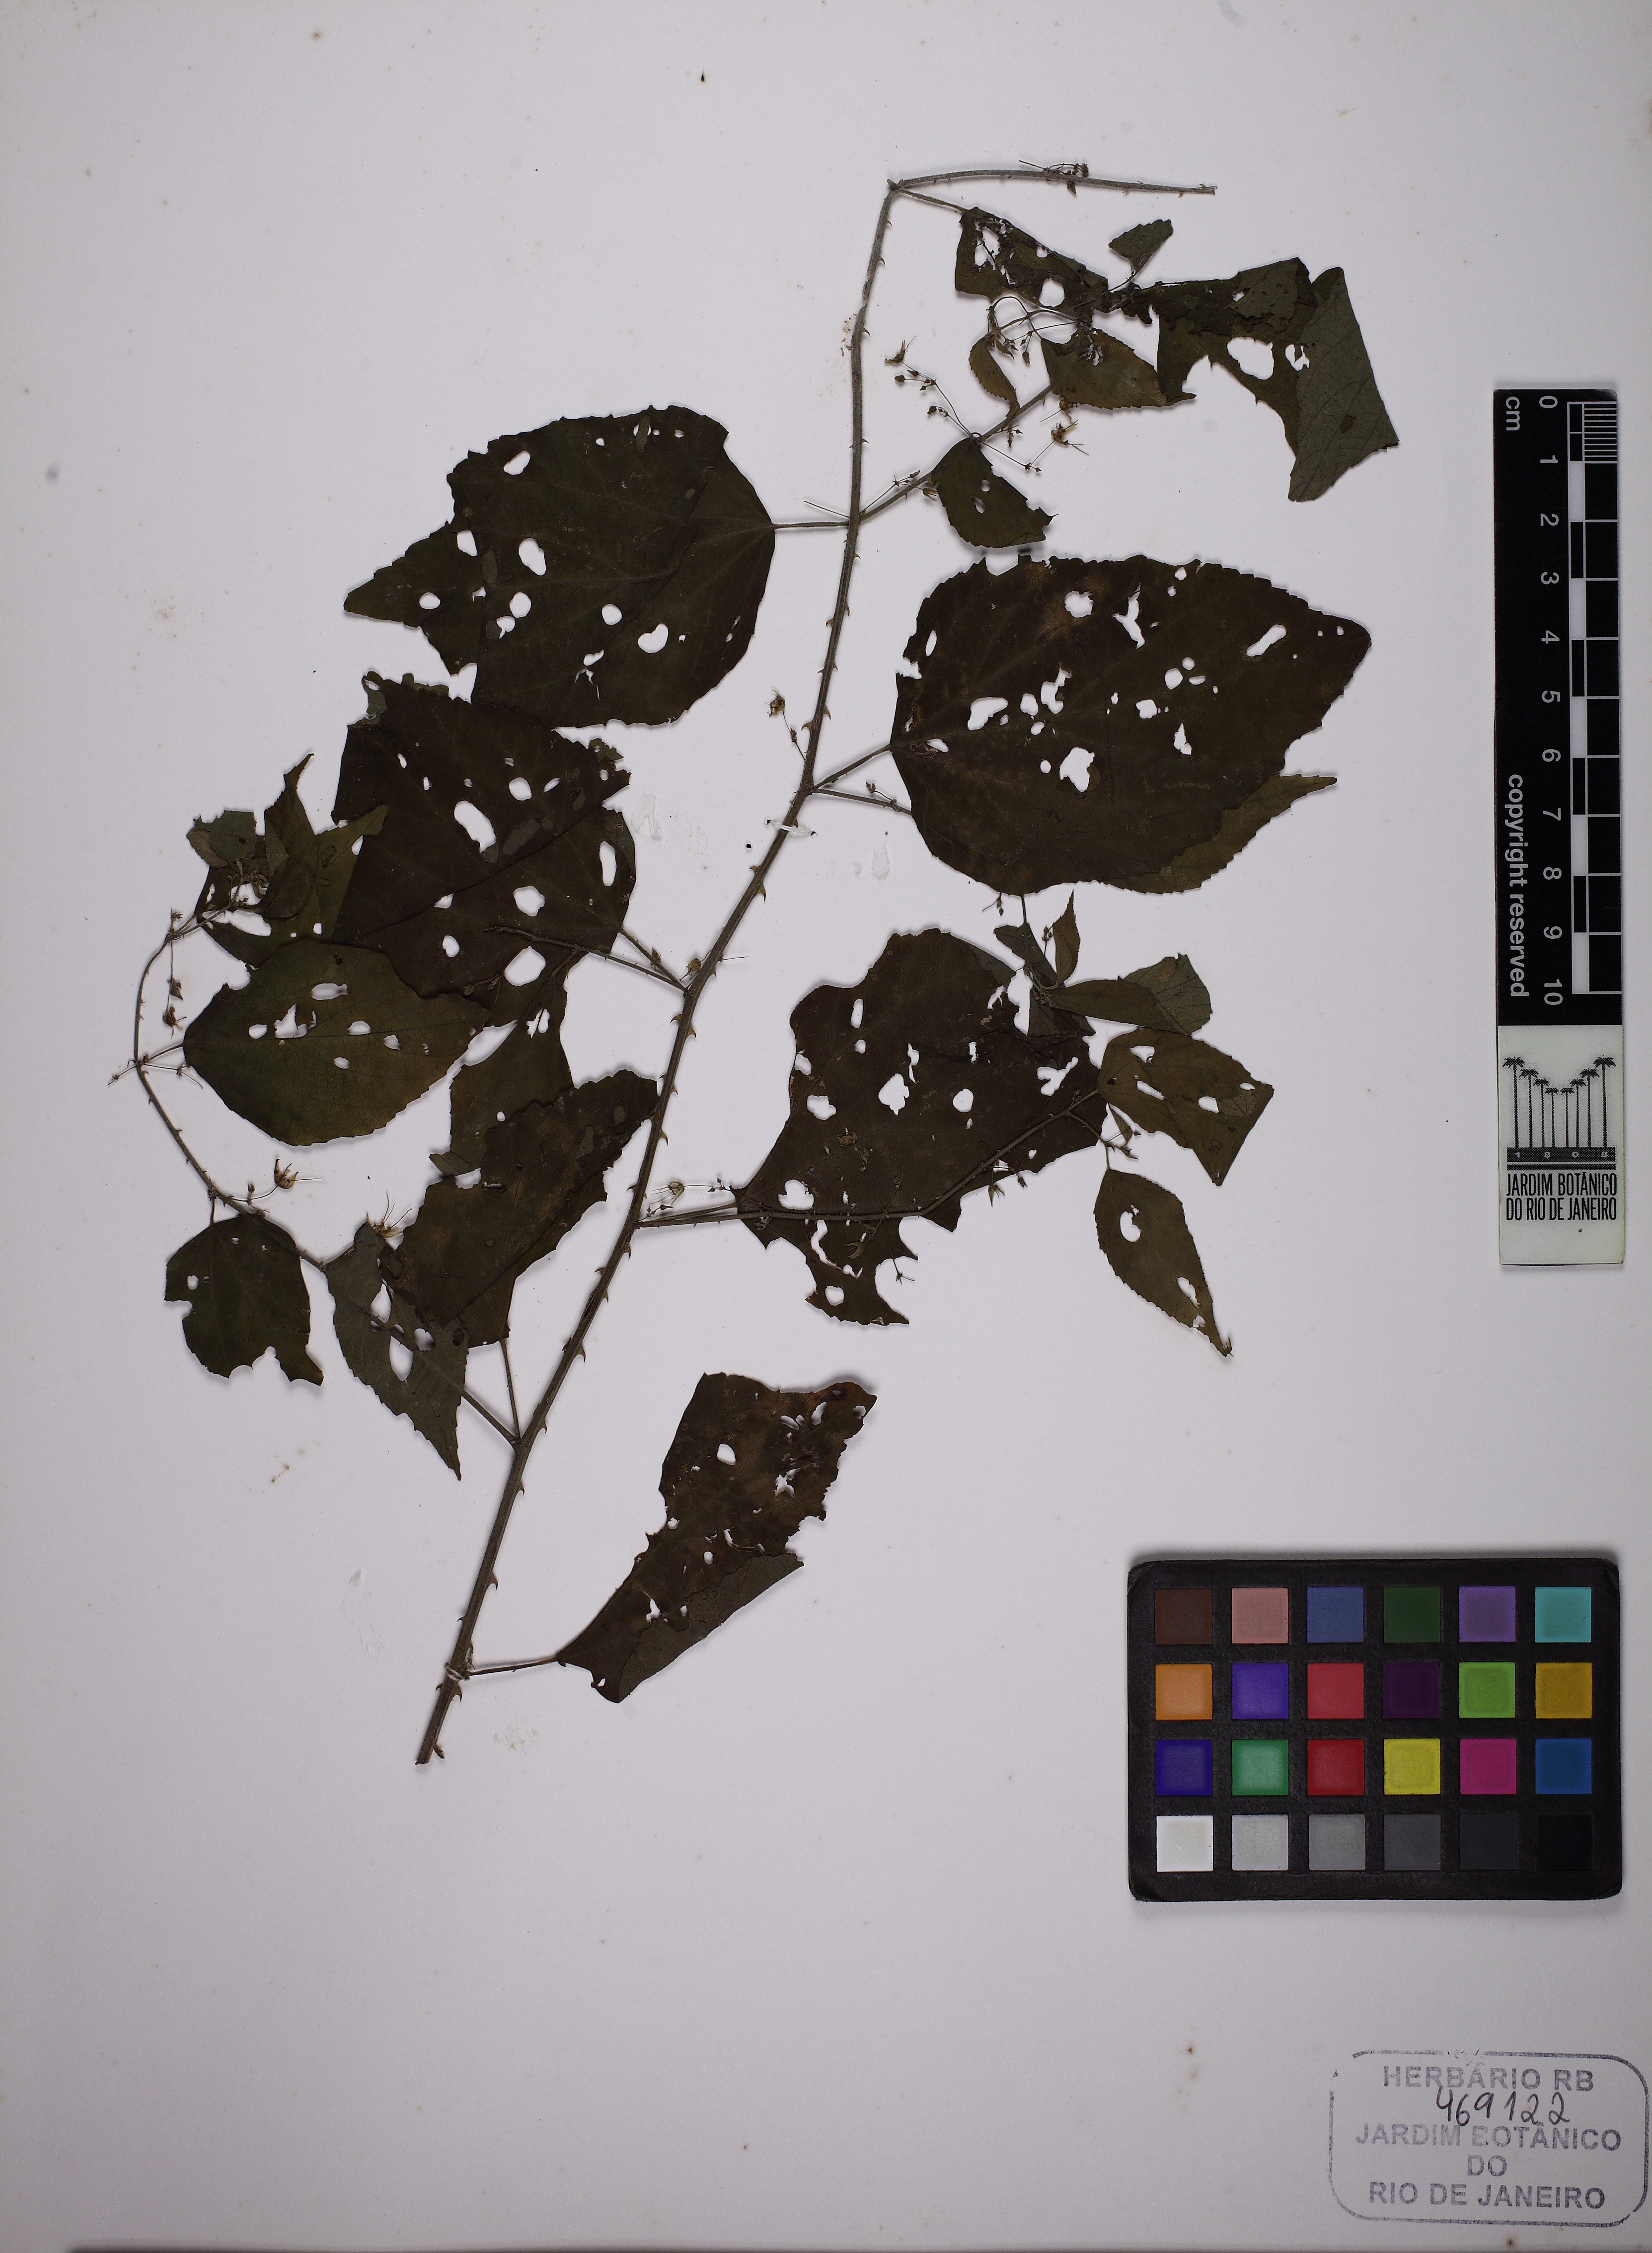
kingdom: Plantae
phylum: Tracheophyta
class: Magnoliopsida
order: Malvales
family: Malvaceae
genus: Byttneria
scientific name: Byttneria beyrichiana
